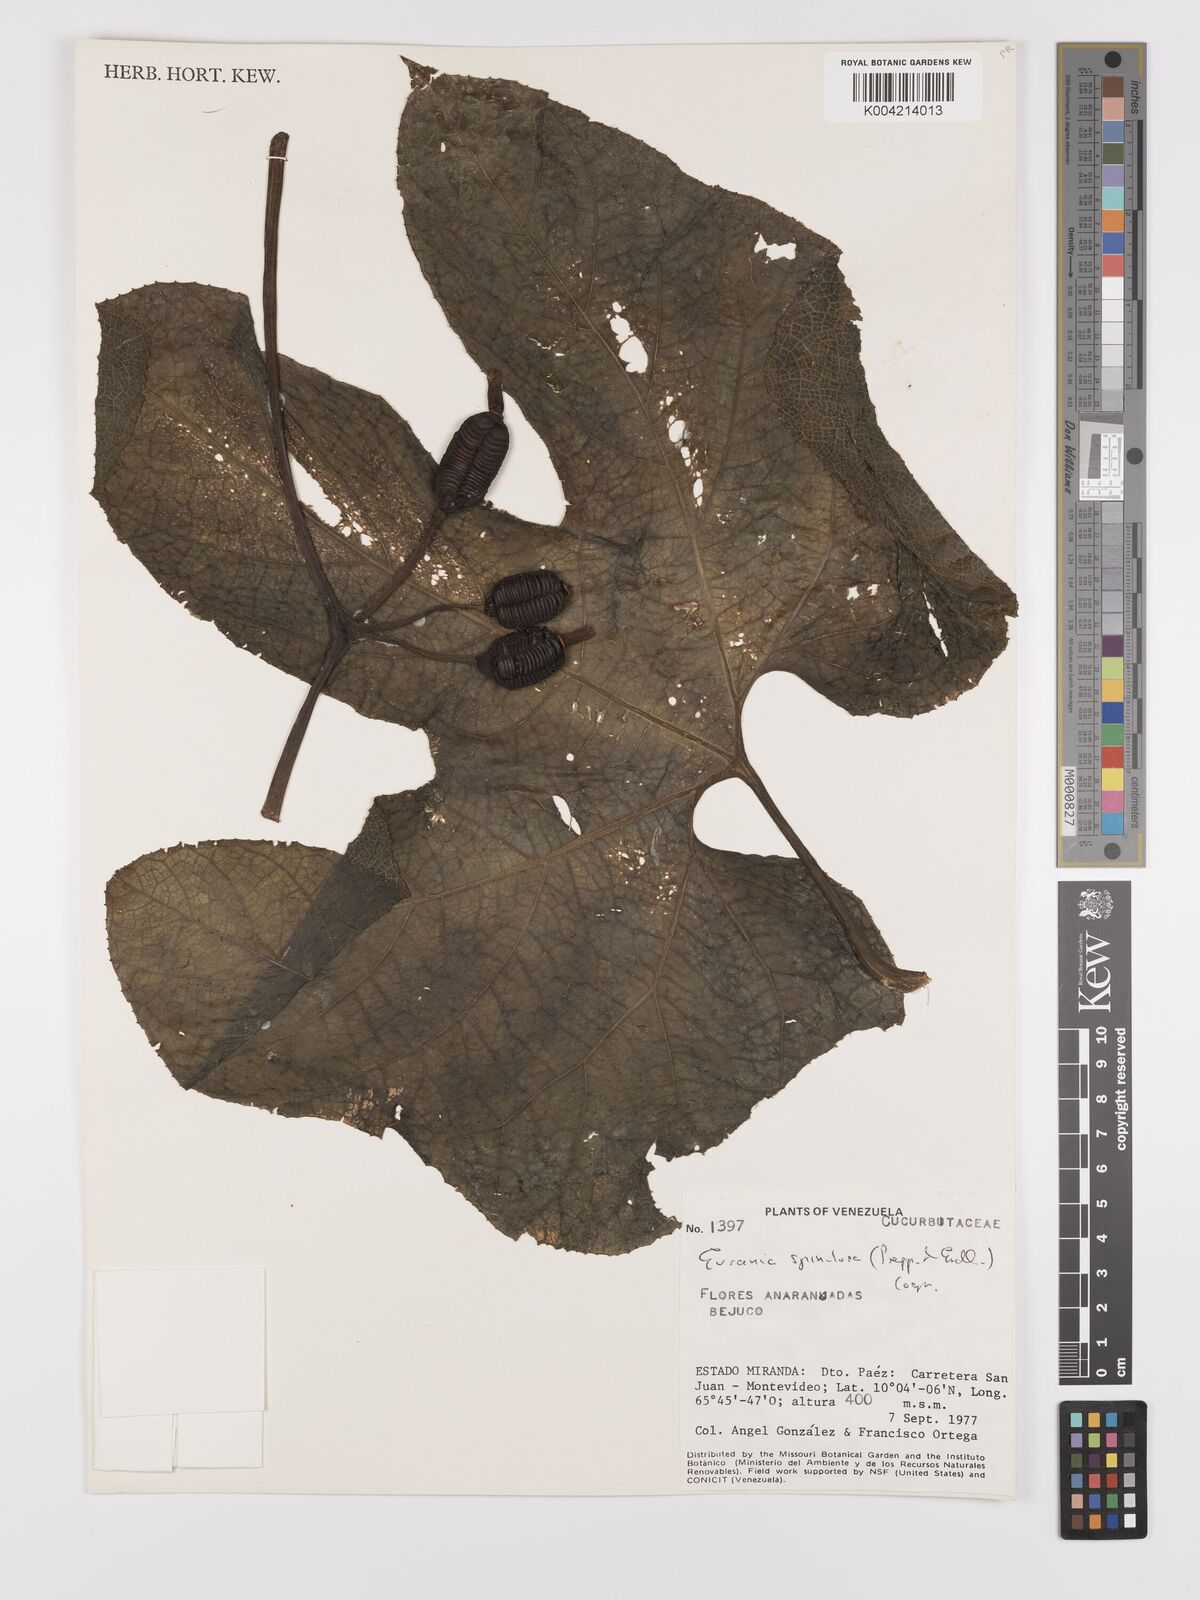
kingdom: Plantae
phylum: Tracheophyta
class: Magnoliopsida
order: Cucurbitales
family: Cucurbitaceae
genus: Gurania
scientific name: Gurania lobata
